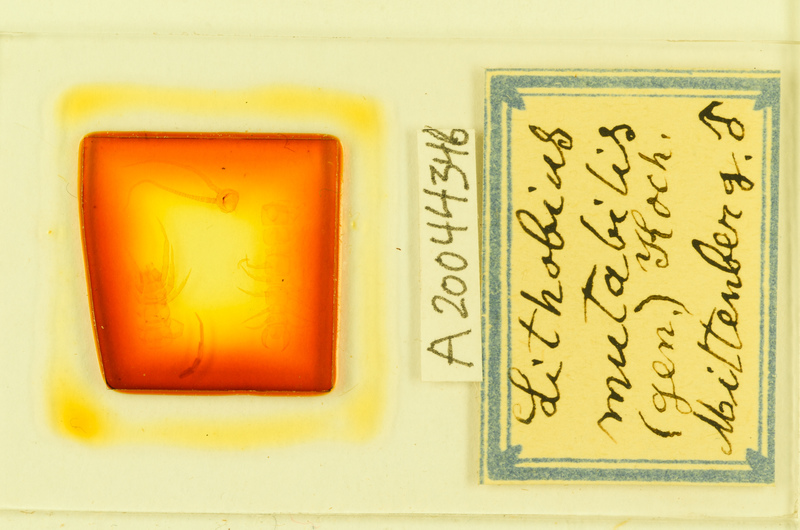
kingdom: Animalia
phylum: Arthropoda
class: Chilopoda
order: Lithobiomorpha
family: Lithobiidae
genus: Lithobius
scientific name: Lithobius mutabilis
